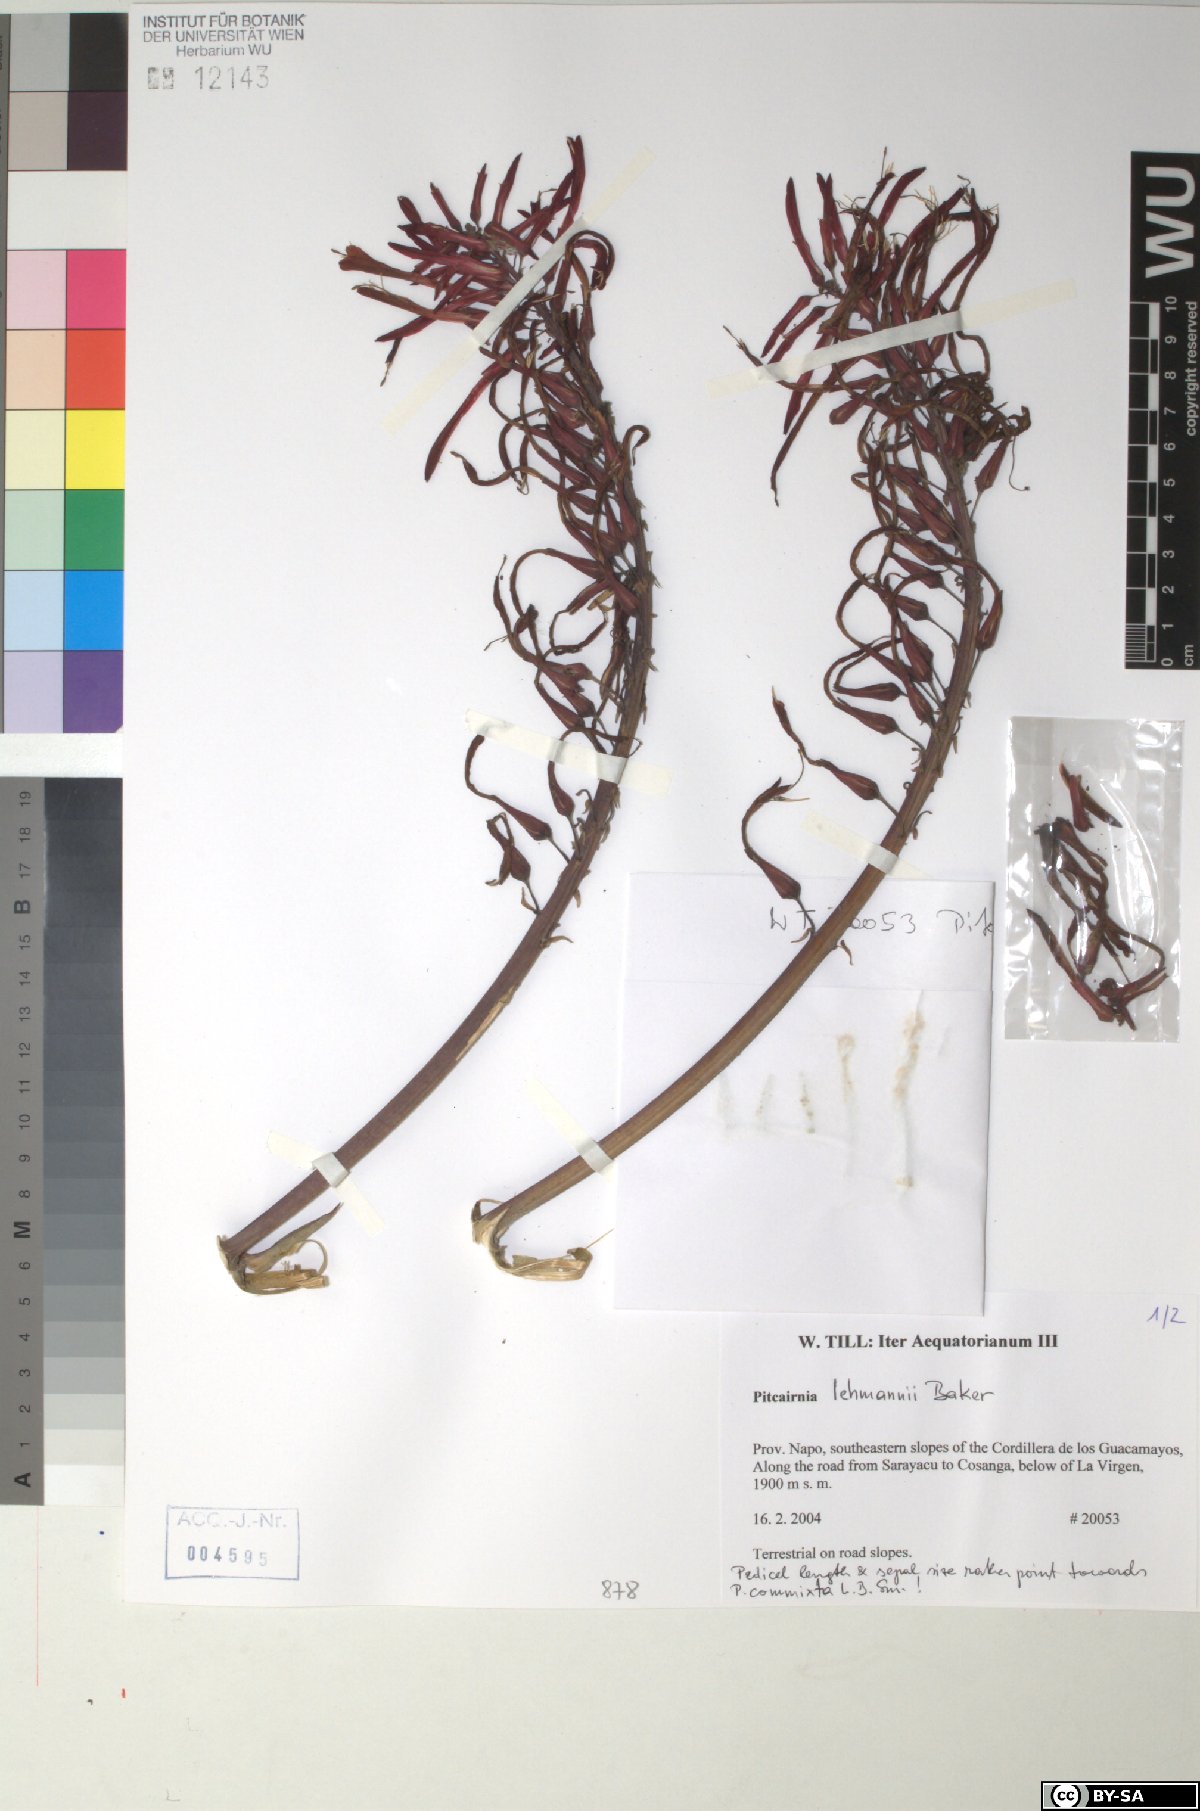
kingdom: Plantae
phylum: Tracheophyta
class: Liliopsida
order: Poales
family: Bromeliaceae
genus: Pitcairnia
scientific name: Pitcairnia lehmannii
